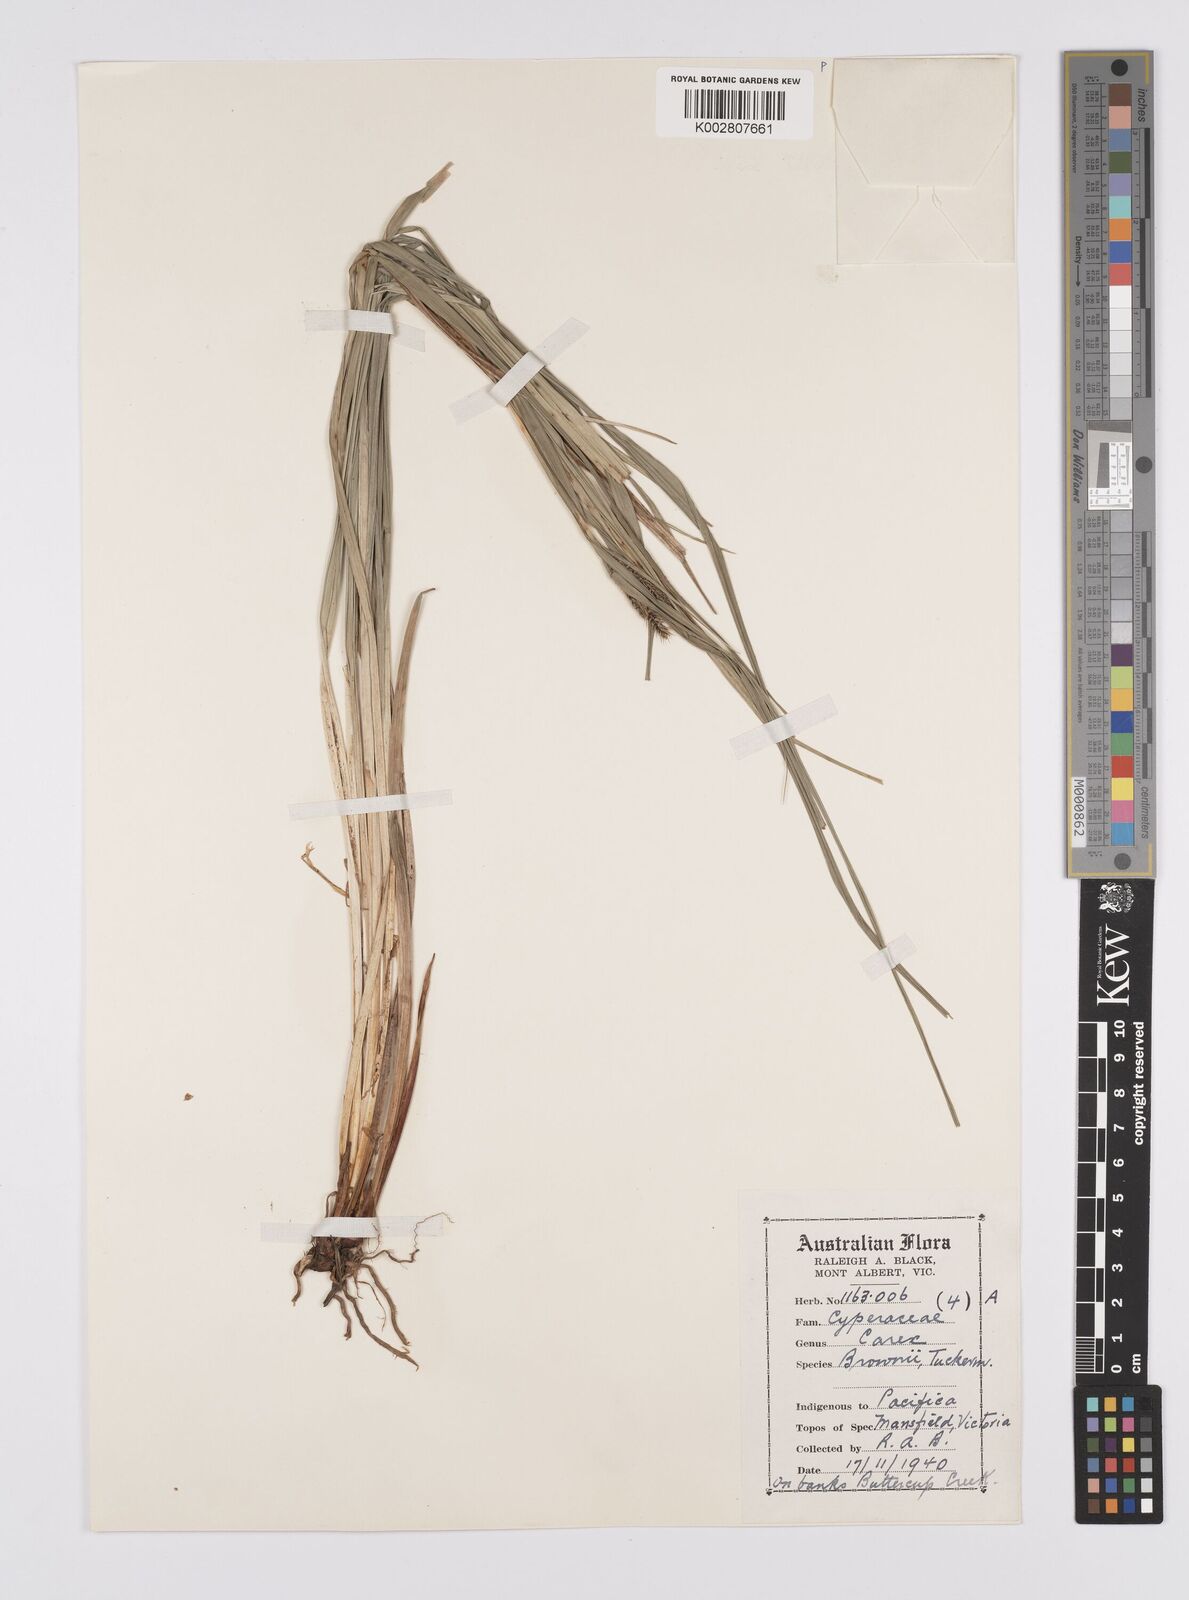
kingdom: Plantae
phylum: Tracheophyta
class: Liliopsida
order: Poales
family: Cyperaceae
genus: Carex
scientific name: Carex brownii
